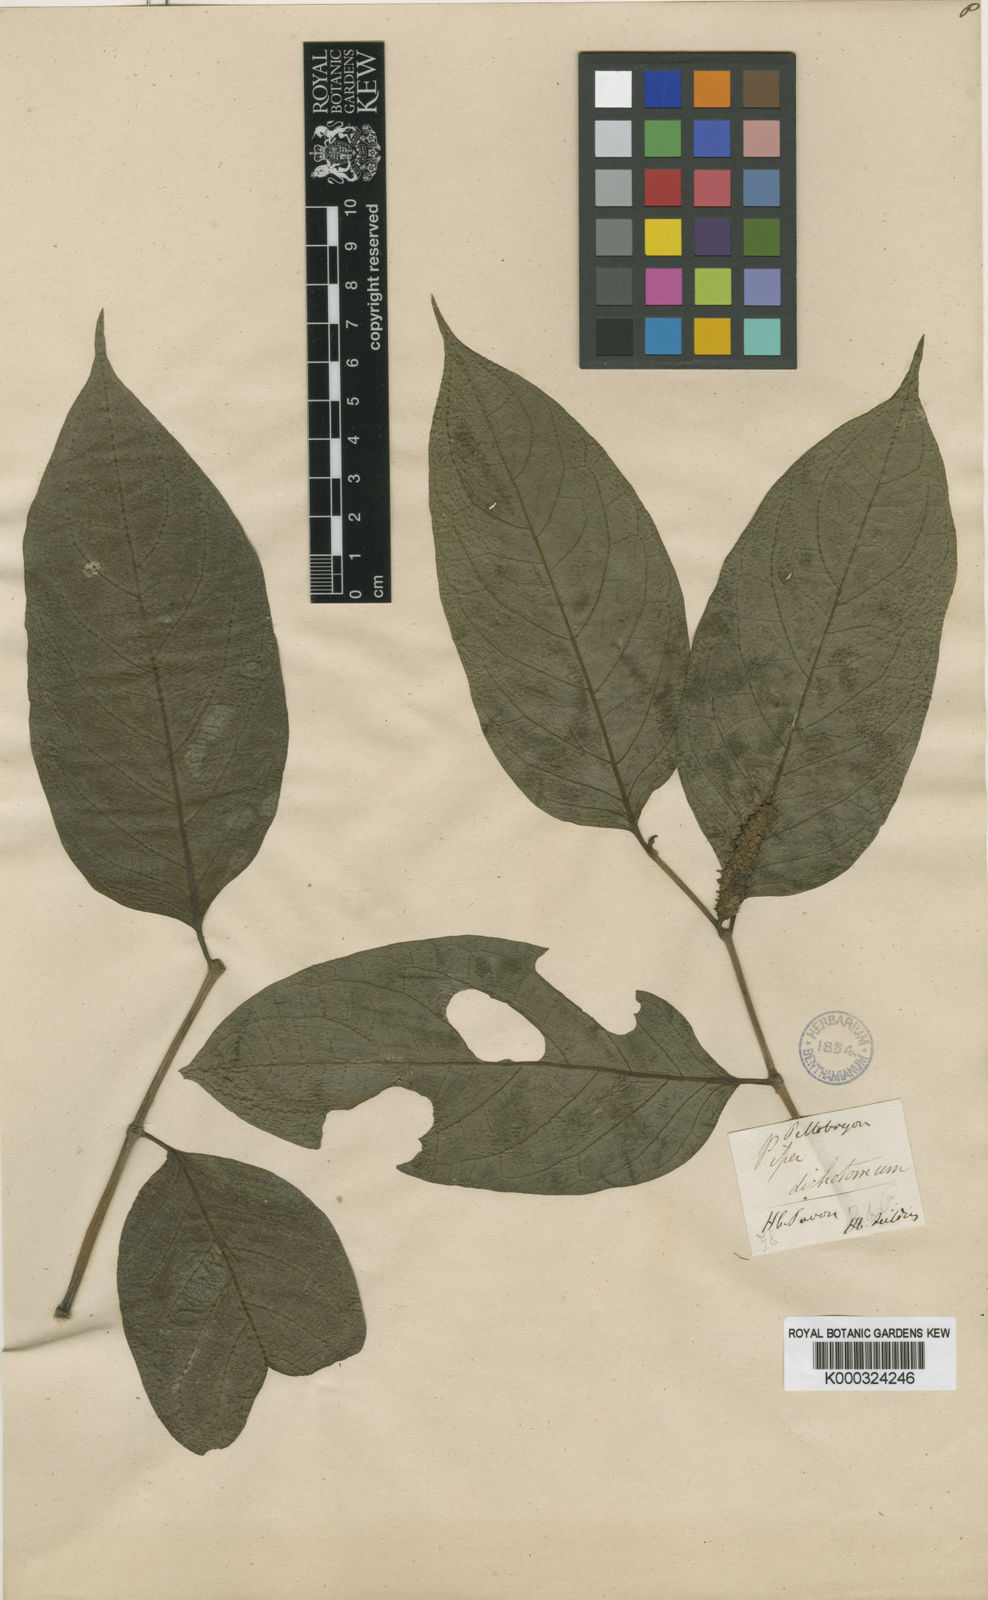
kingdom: Plantae
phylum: Tracheophyta
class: Magnoliopsida
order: Piperales
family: Piperaceae
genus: Piper
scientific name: Piper dichotomum
